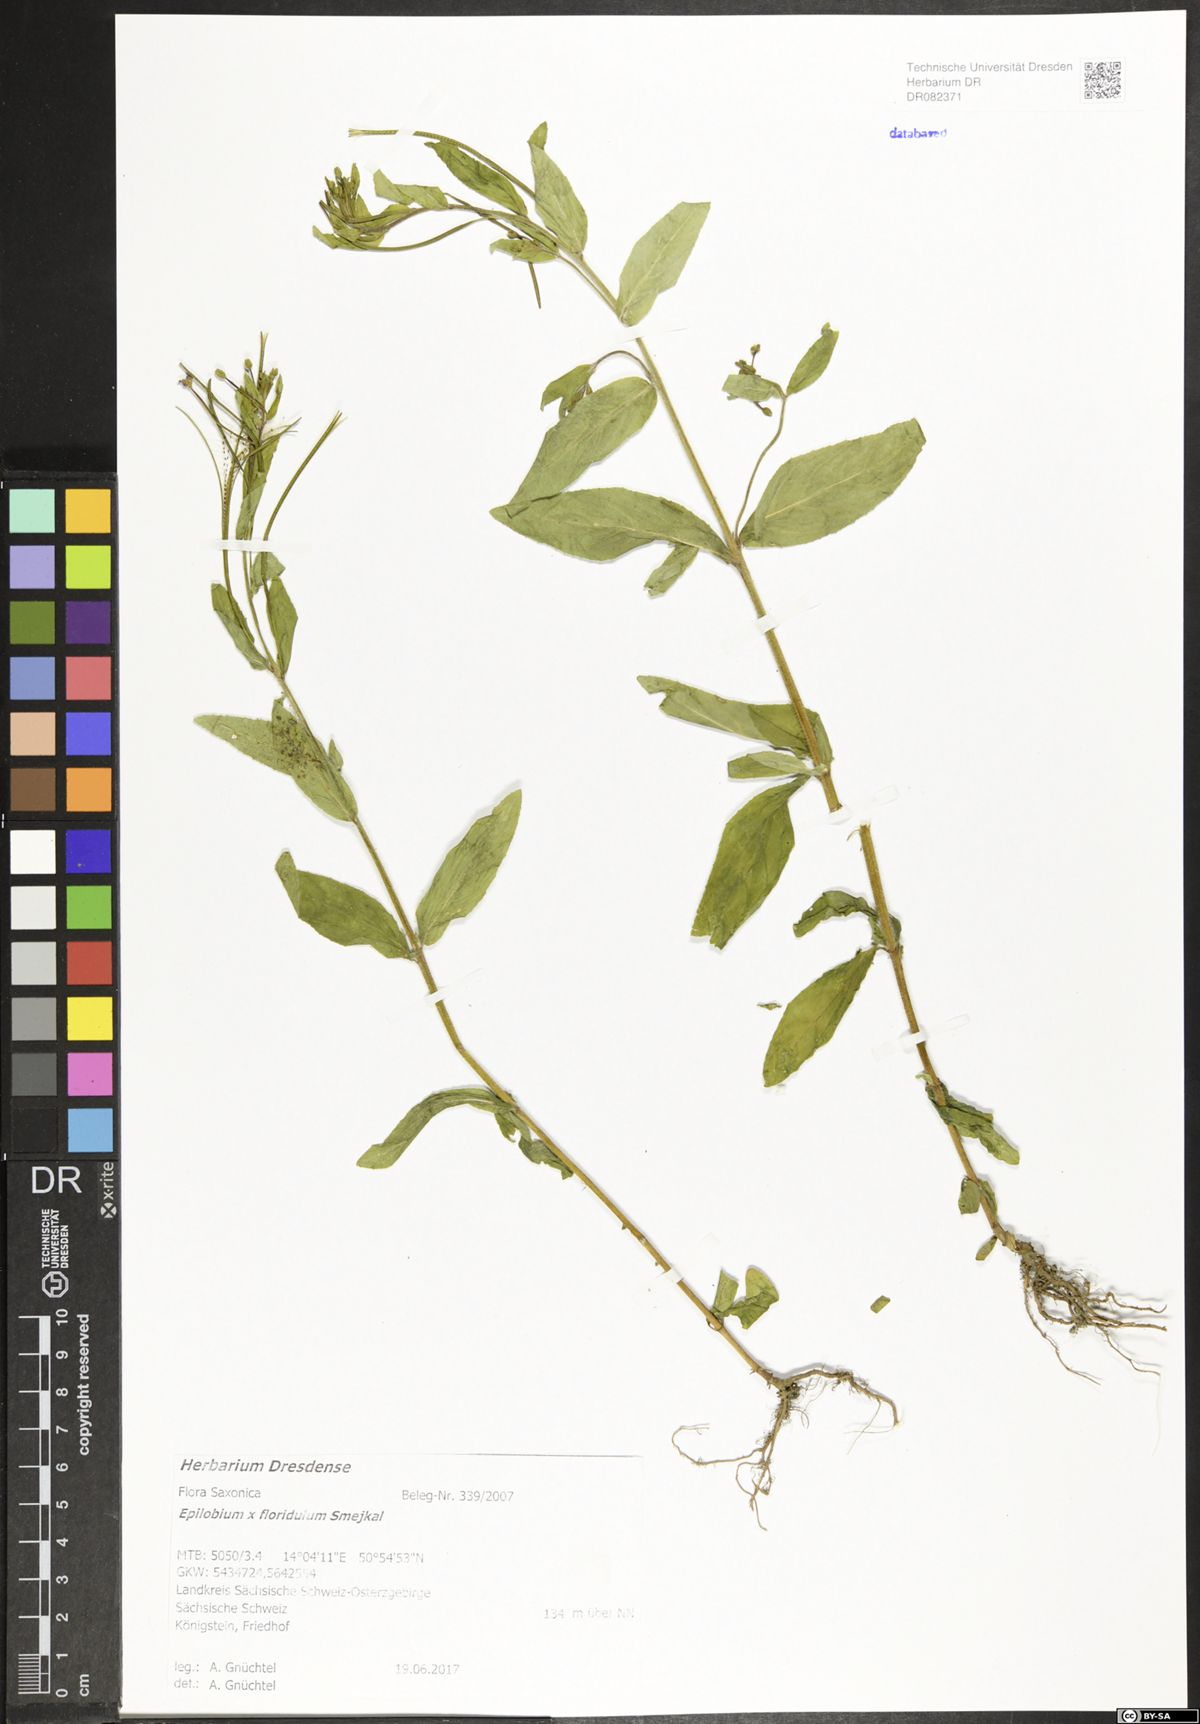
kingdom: Plantae
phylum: Tracheophyta
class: Magnoliopsida
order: Myrtales
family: Onagraceae
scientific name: Onagraceae
